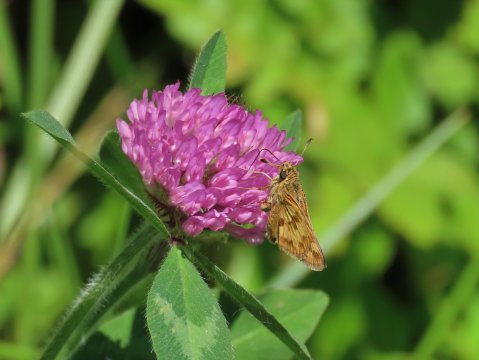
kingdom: Animalia
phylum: Arthropoda
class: Insecta
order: Lepidoptera
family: Hesperiidae
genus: Polites
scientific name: Polites coras
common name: Peck's Skipper
